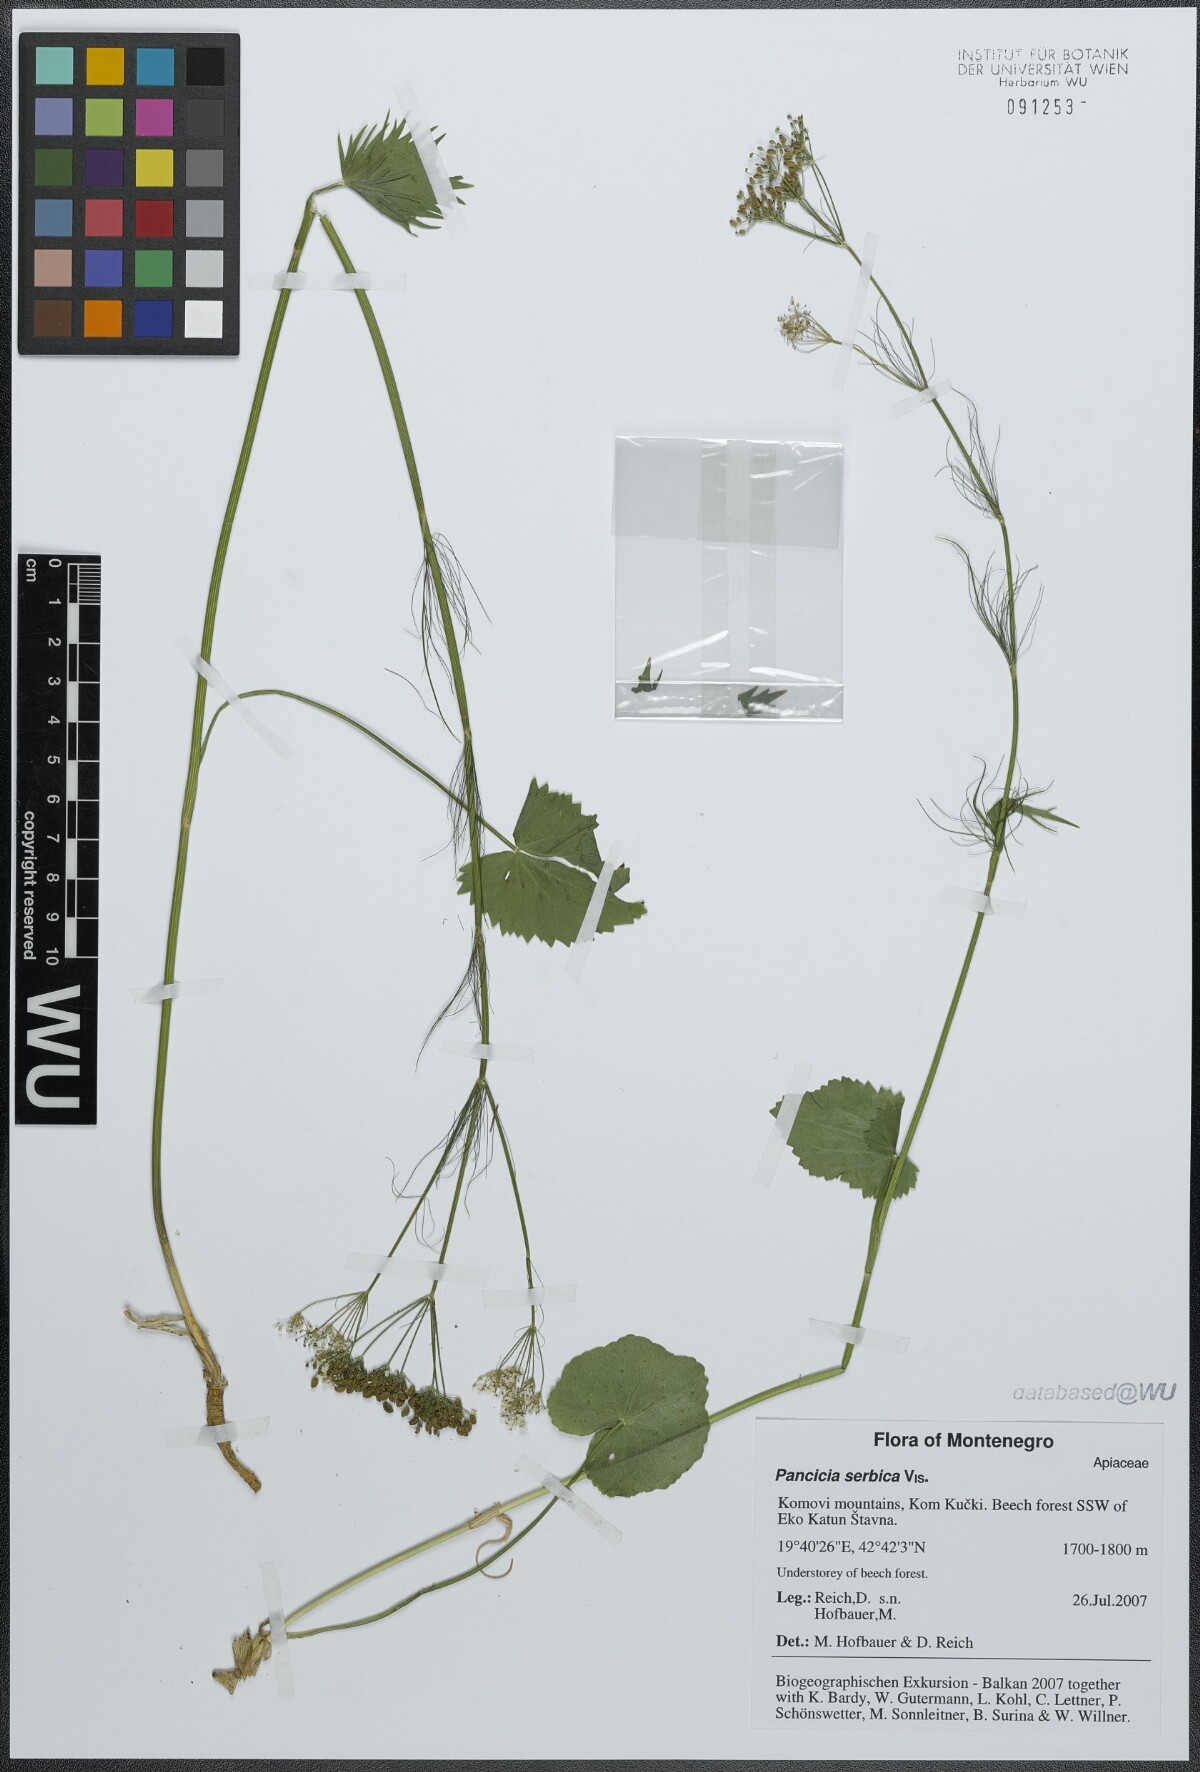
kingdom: Plantae
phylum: Tracheophyta
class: Magnoliopsida
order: Apiales
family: Apiaceae
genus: Pimpinella
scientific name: Pimpinella serbica
